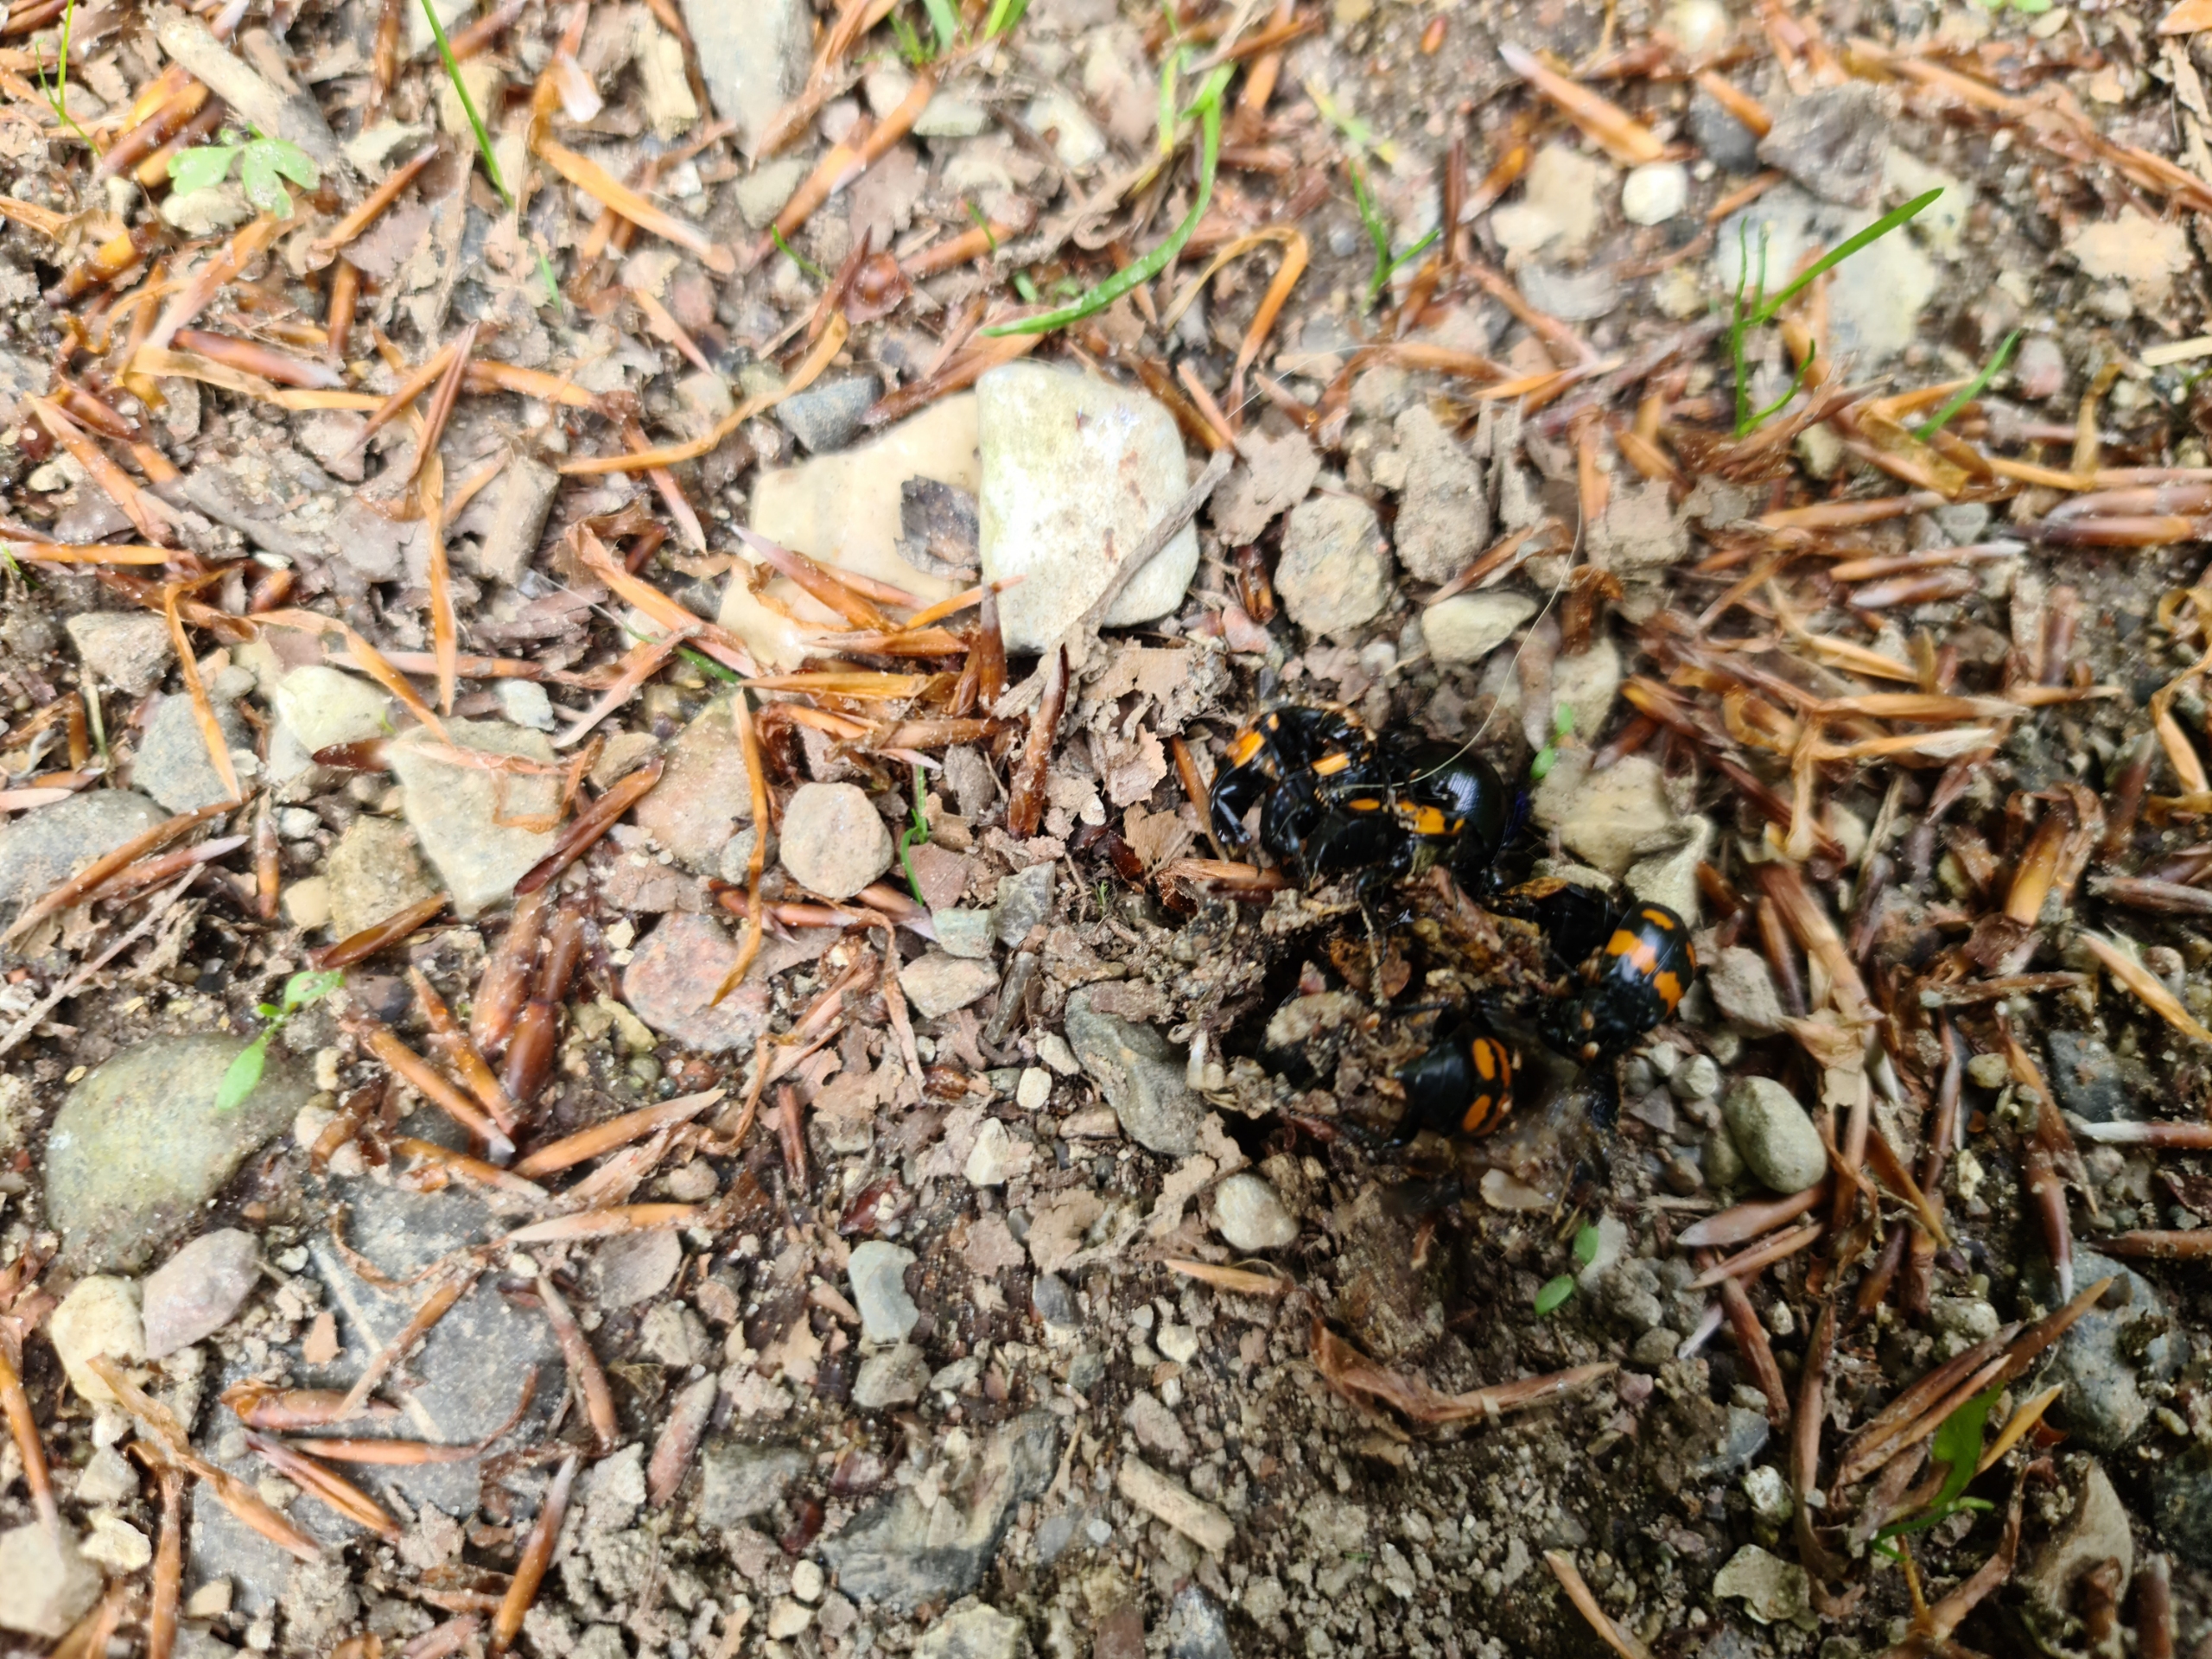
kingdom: Animalia
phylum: Arthropoda
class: Insecta
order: Coleoptera
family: Staphylinidae
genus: Nicrophorus
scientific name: Nicrophorus
